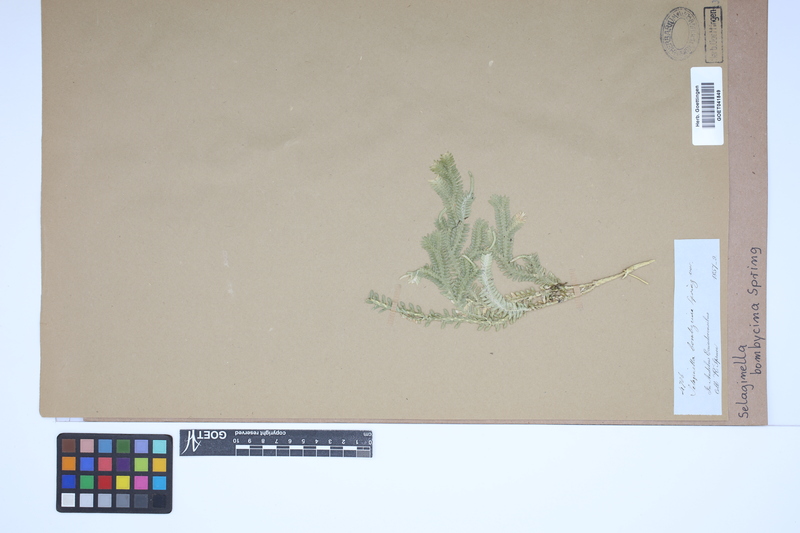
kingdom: Plantae
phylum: Tracheophyta
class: Lycopodiopsida
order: Selaginellales
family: Selaginellaceae
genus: Selaginella
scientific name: Selaginella bombycina
